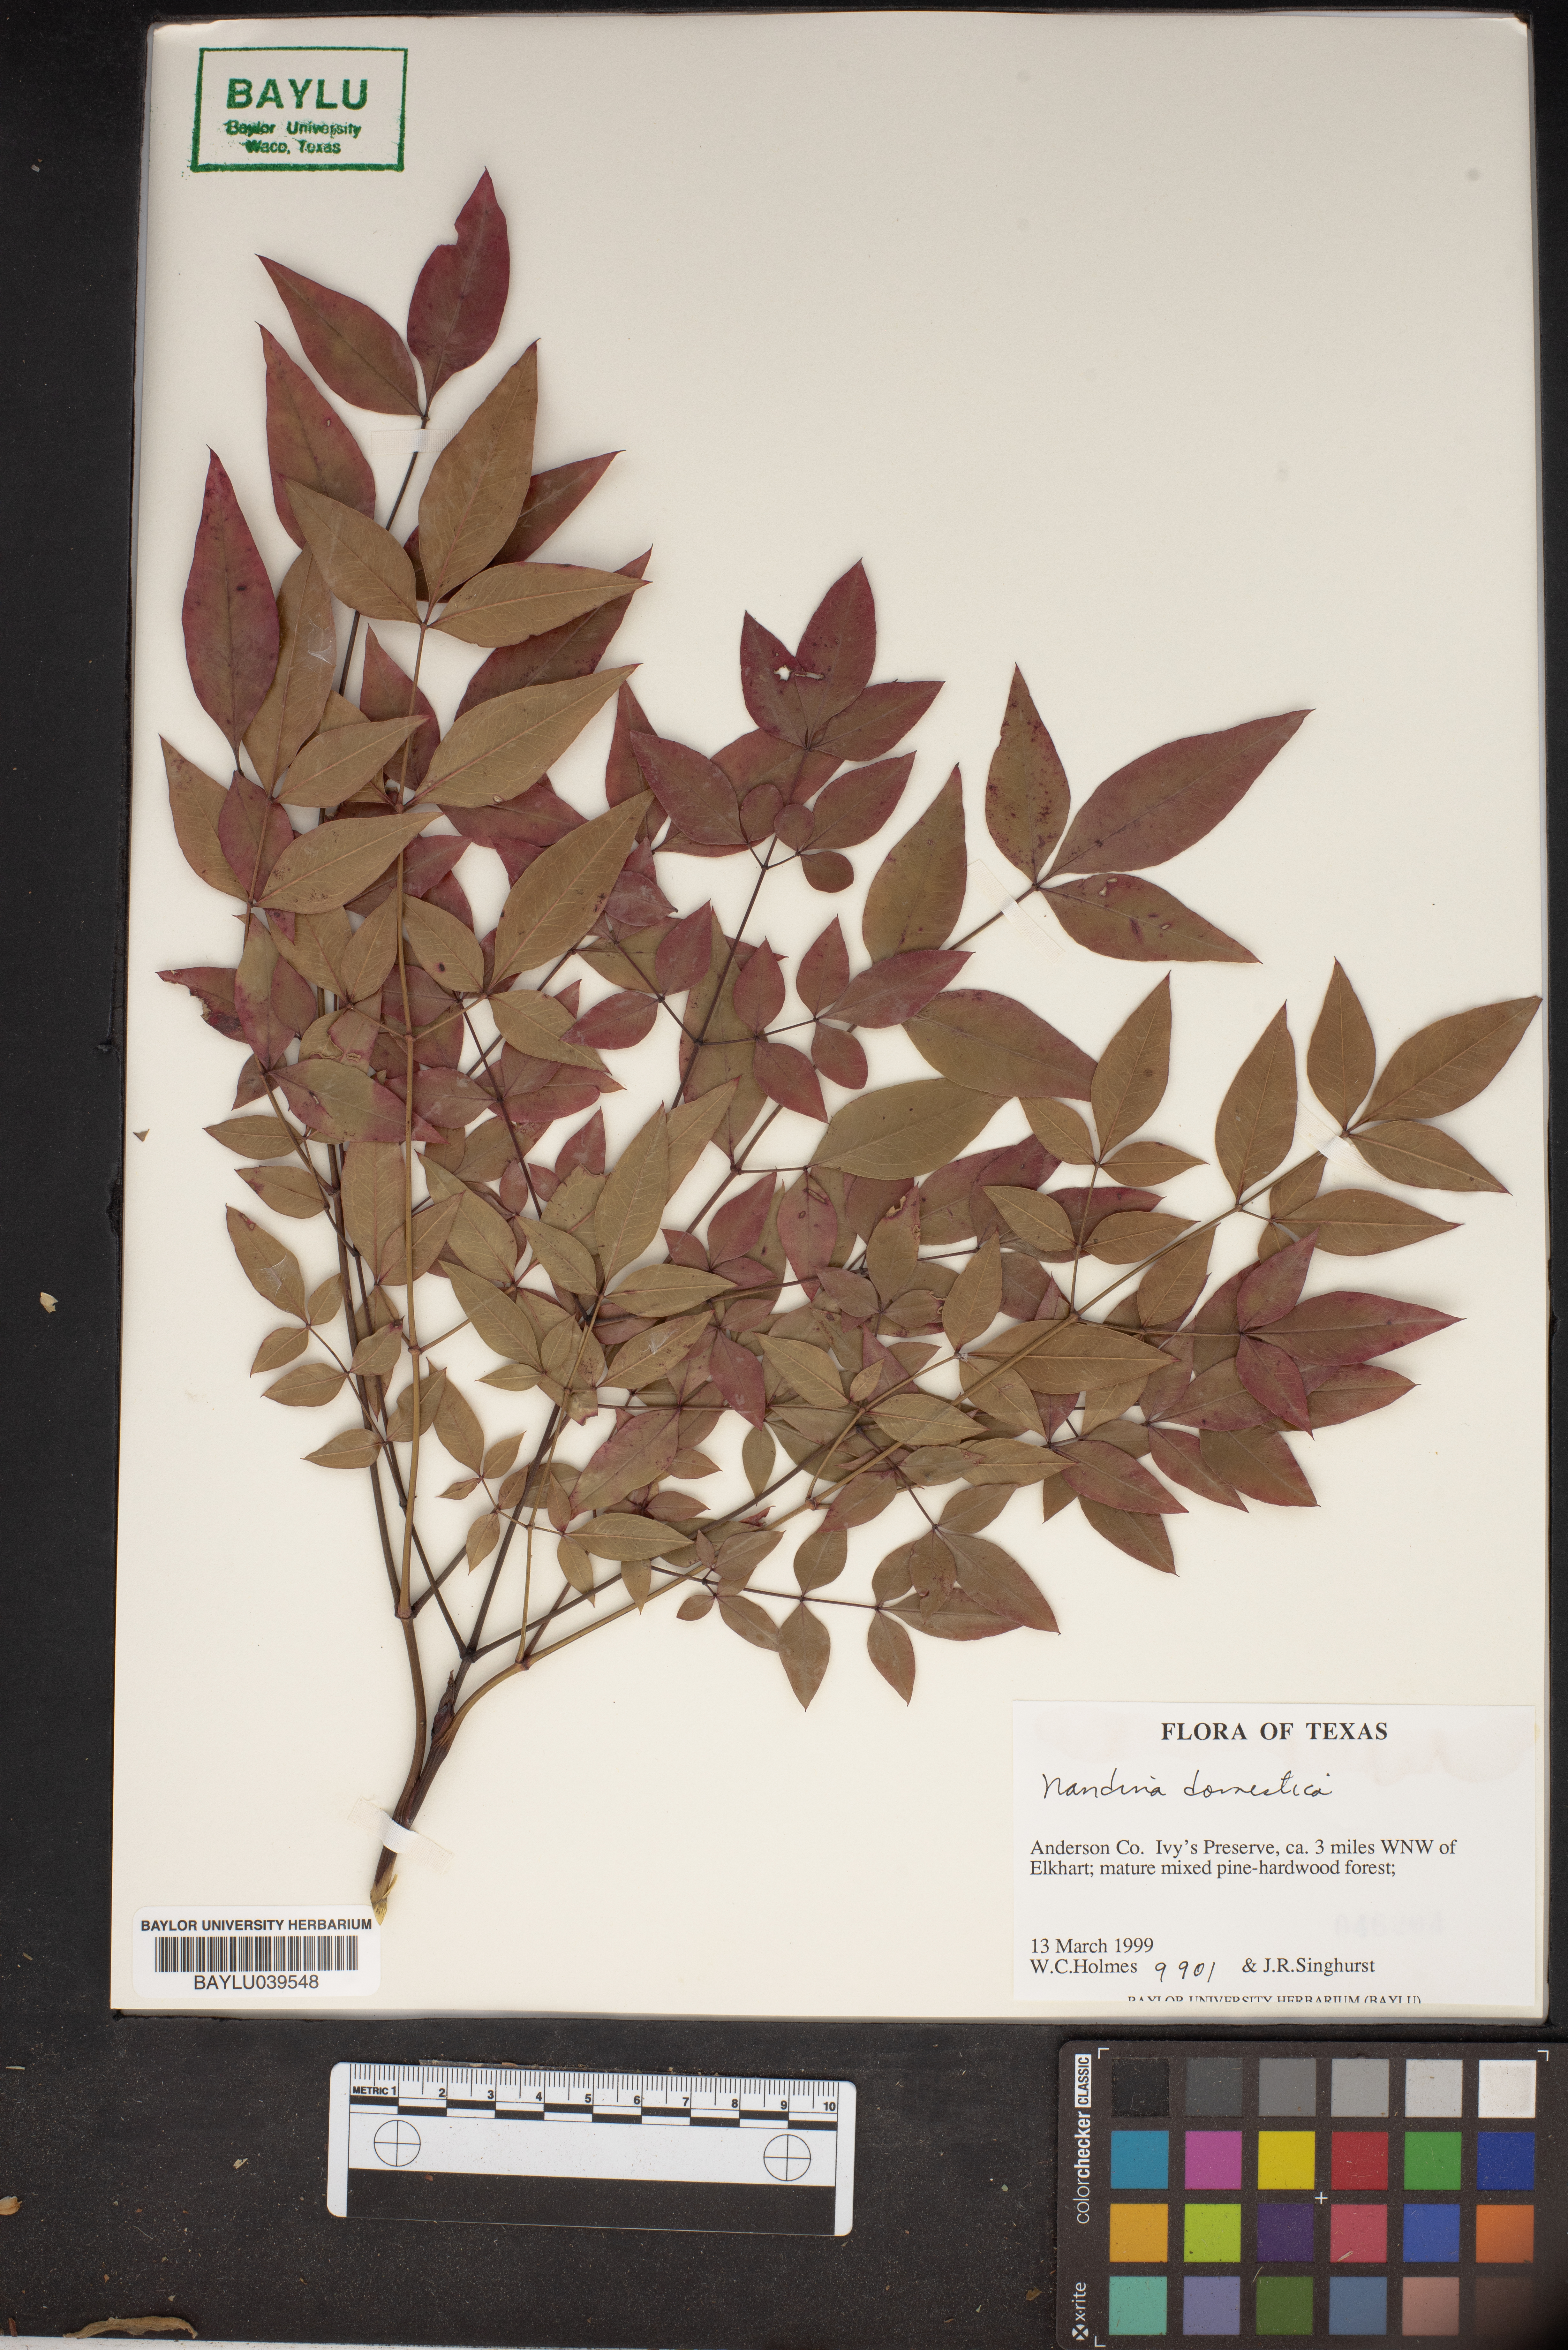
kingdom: Plantae
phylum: Tracheophyta
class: Magnoliopsida
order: Ranunculales
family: Berberidaceae
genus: Nandina
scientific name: Nandina domestica
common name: Sacred bamboo
